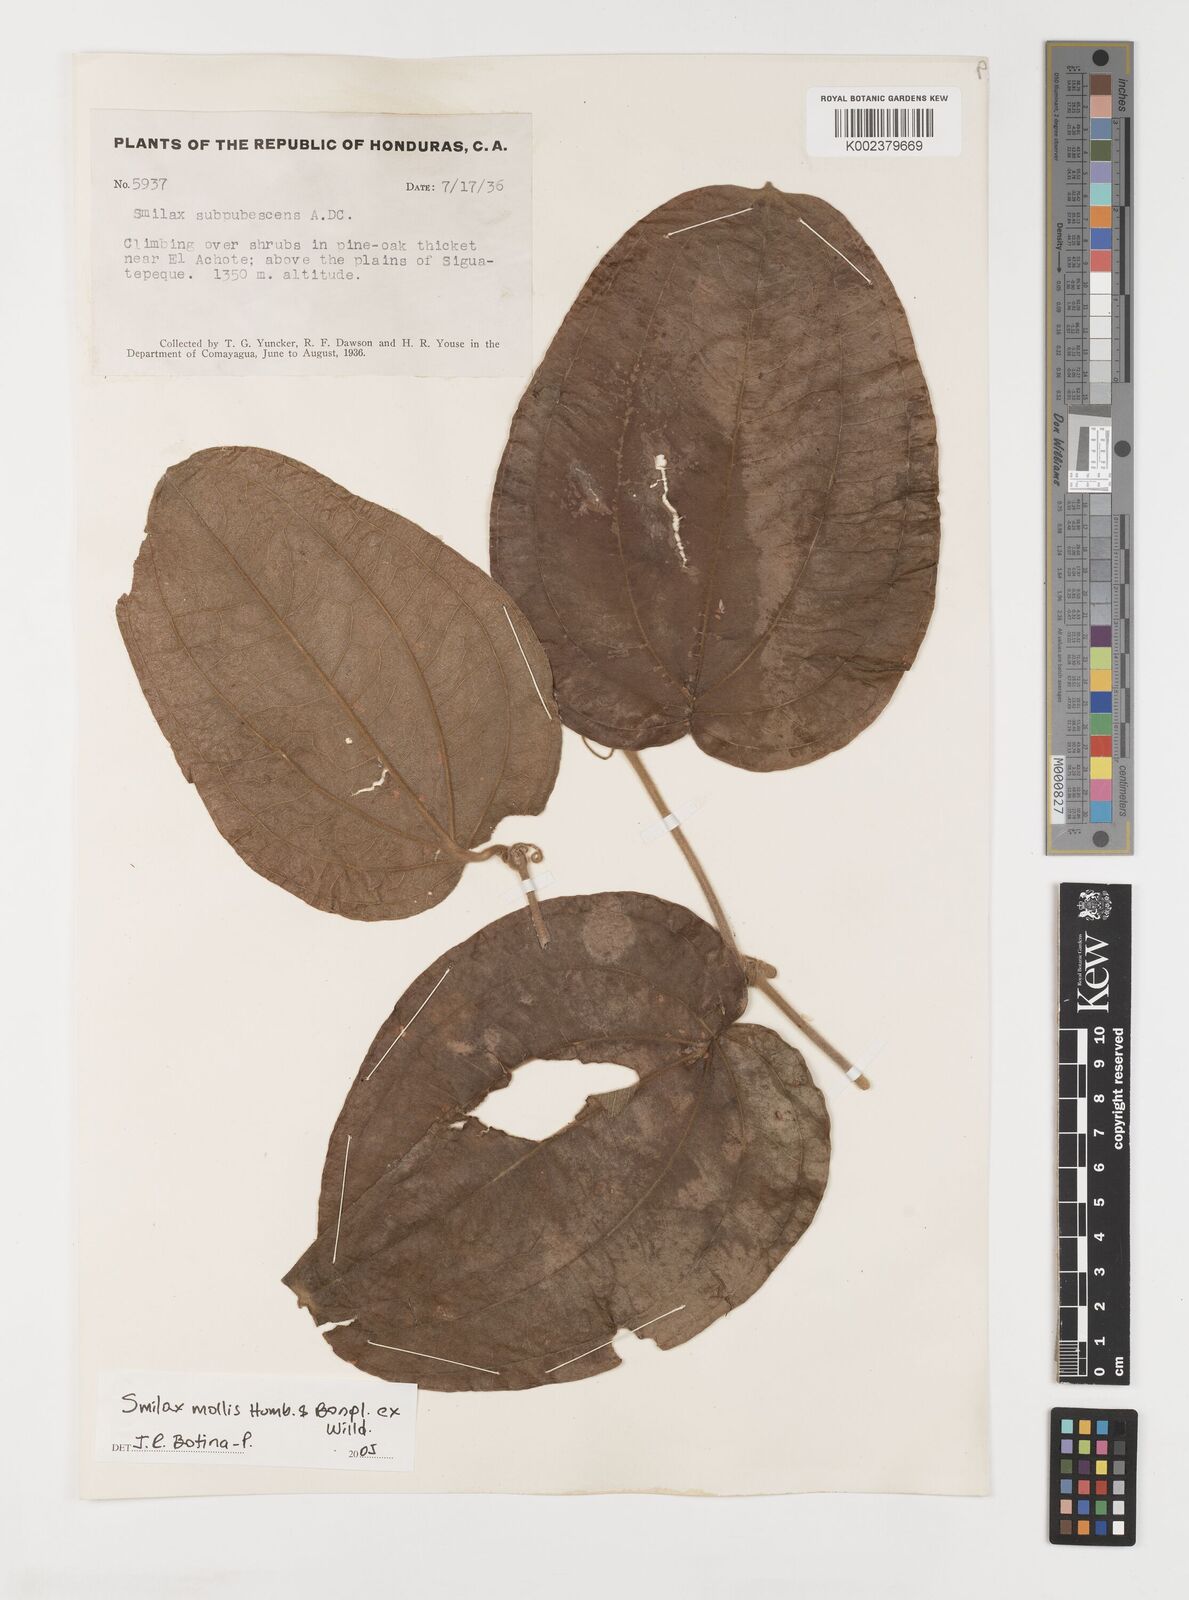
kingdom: Plantae
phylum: Tracheophyta
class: Liliopsida
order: Liliales
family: Smilacaceae
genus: Smilax
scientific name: Smilax mollis
